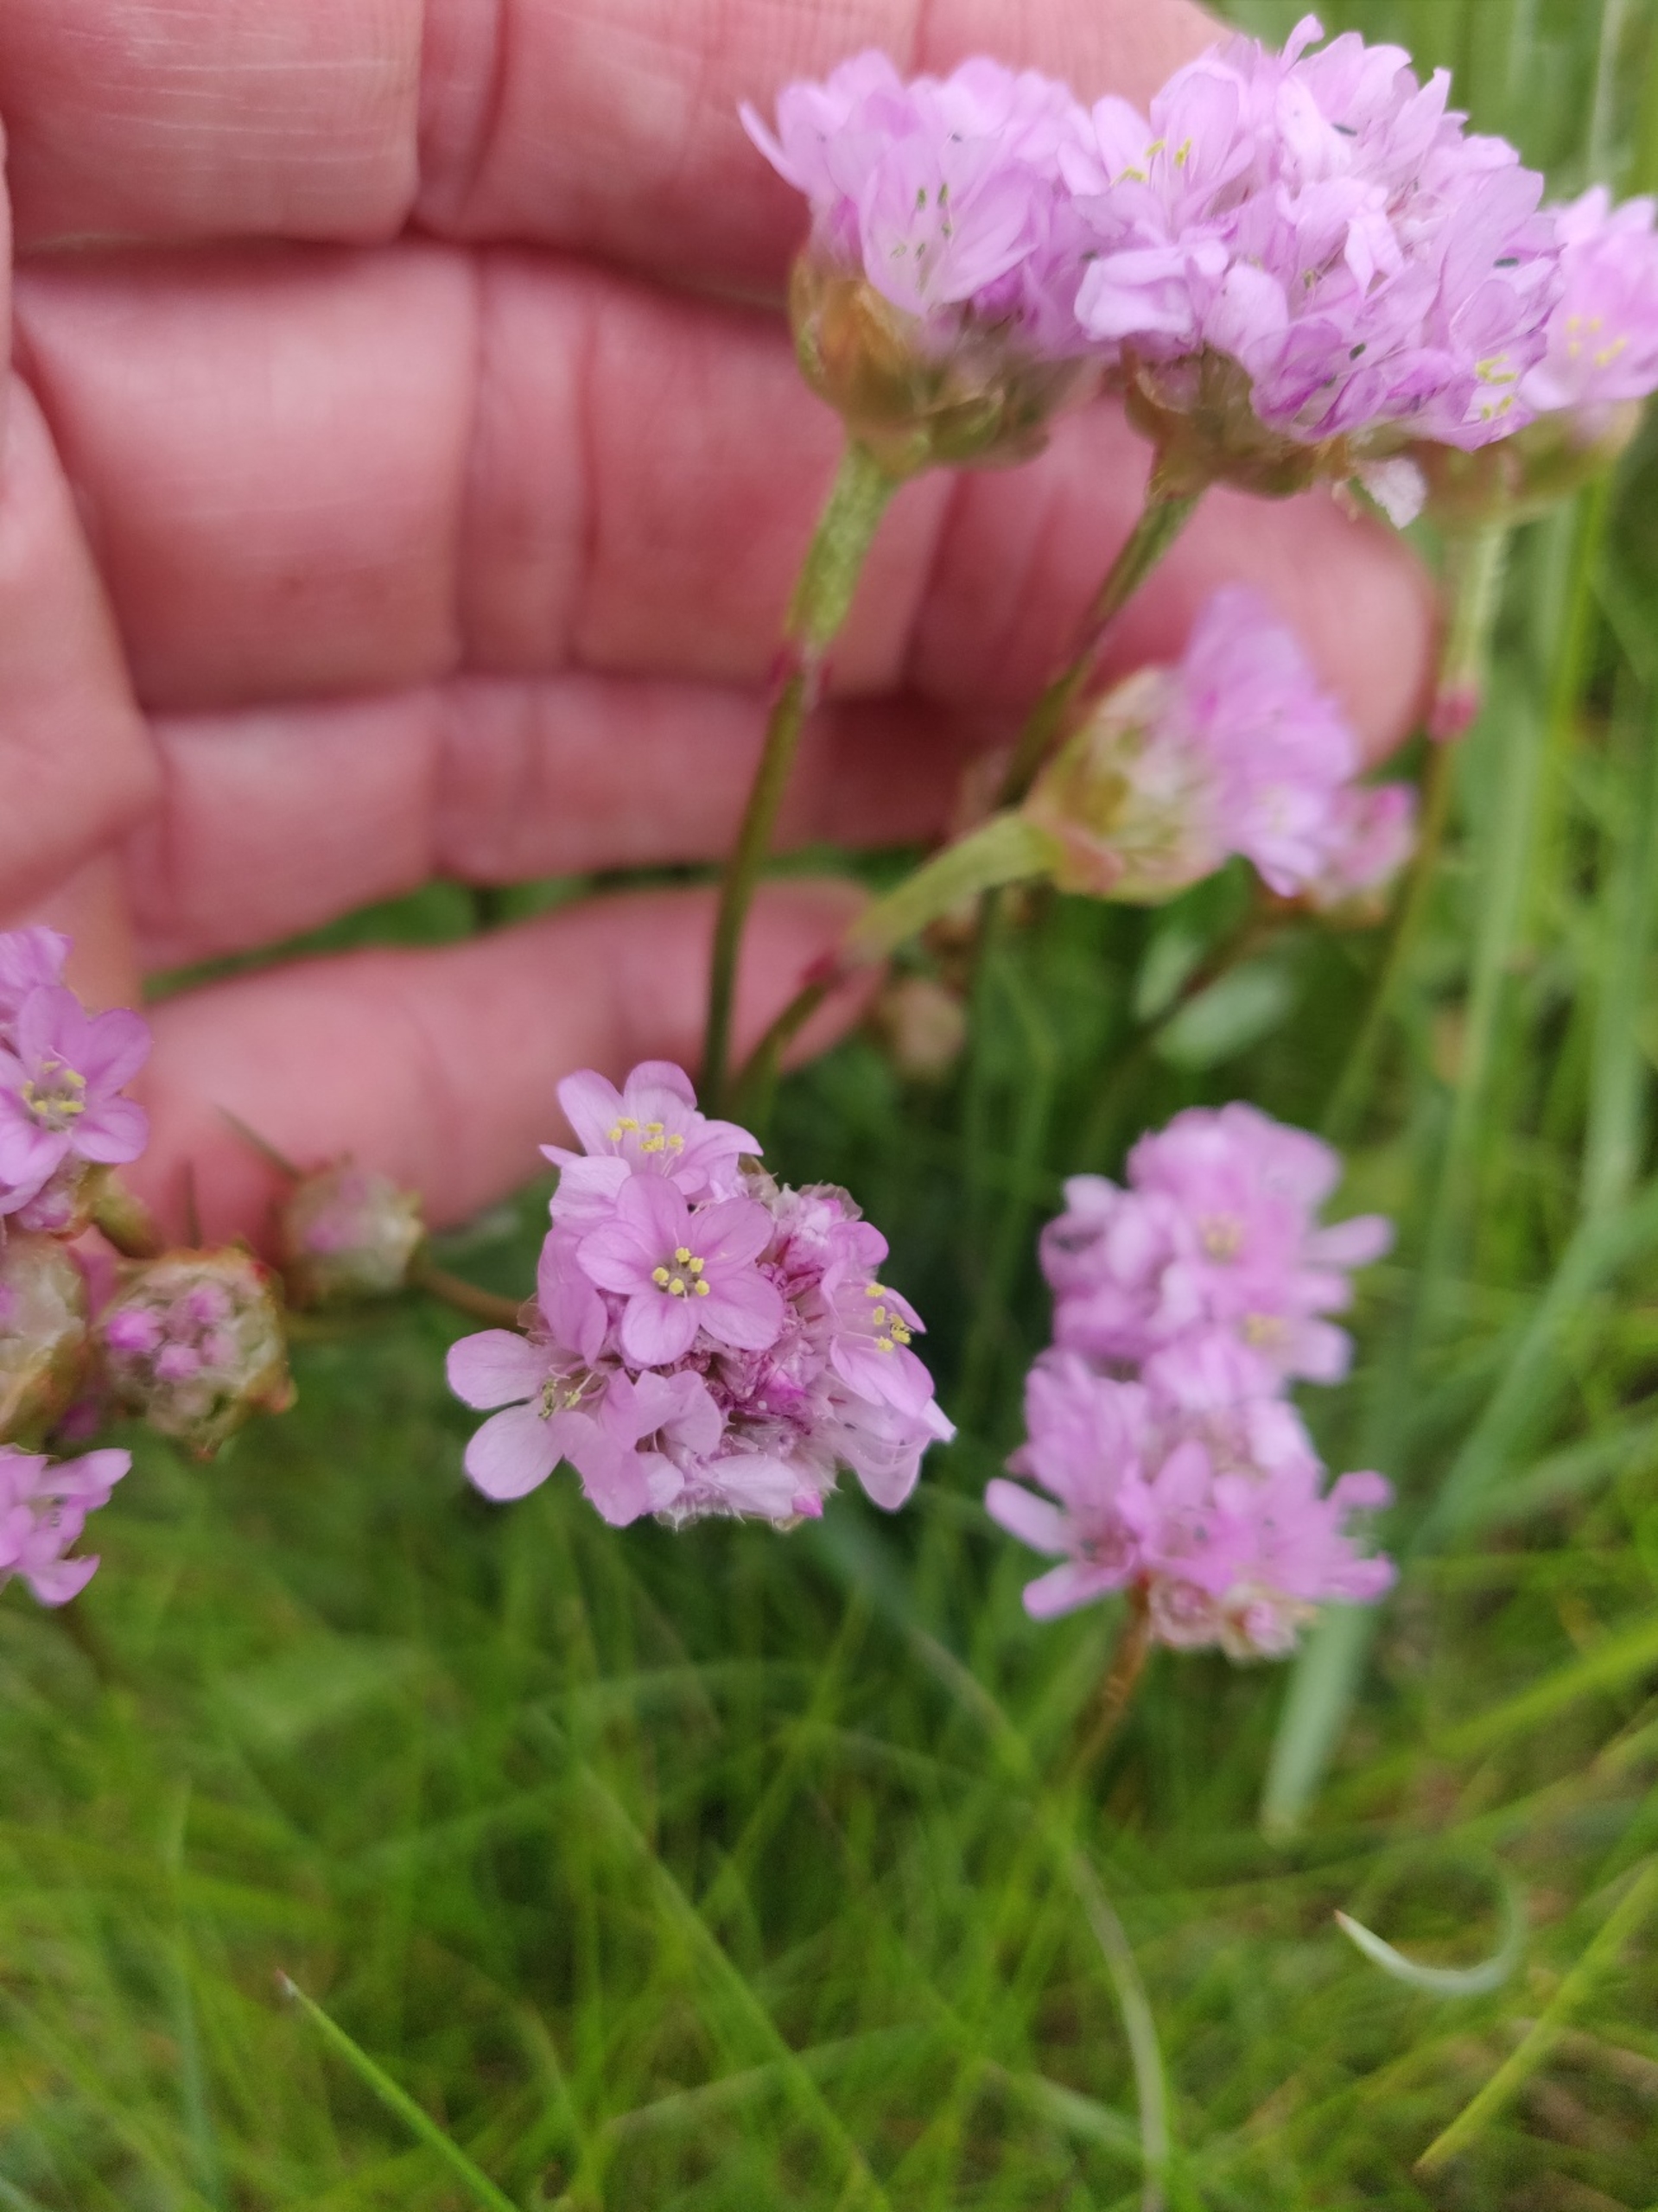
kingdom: Plantae
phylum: Tracheophyta
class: Magnoliopsida
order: Caryophyllales
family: Plumbaginaceae
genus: Armeria
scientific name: Armeria maritima
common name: Engelskgræs
